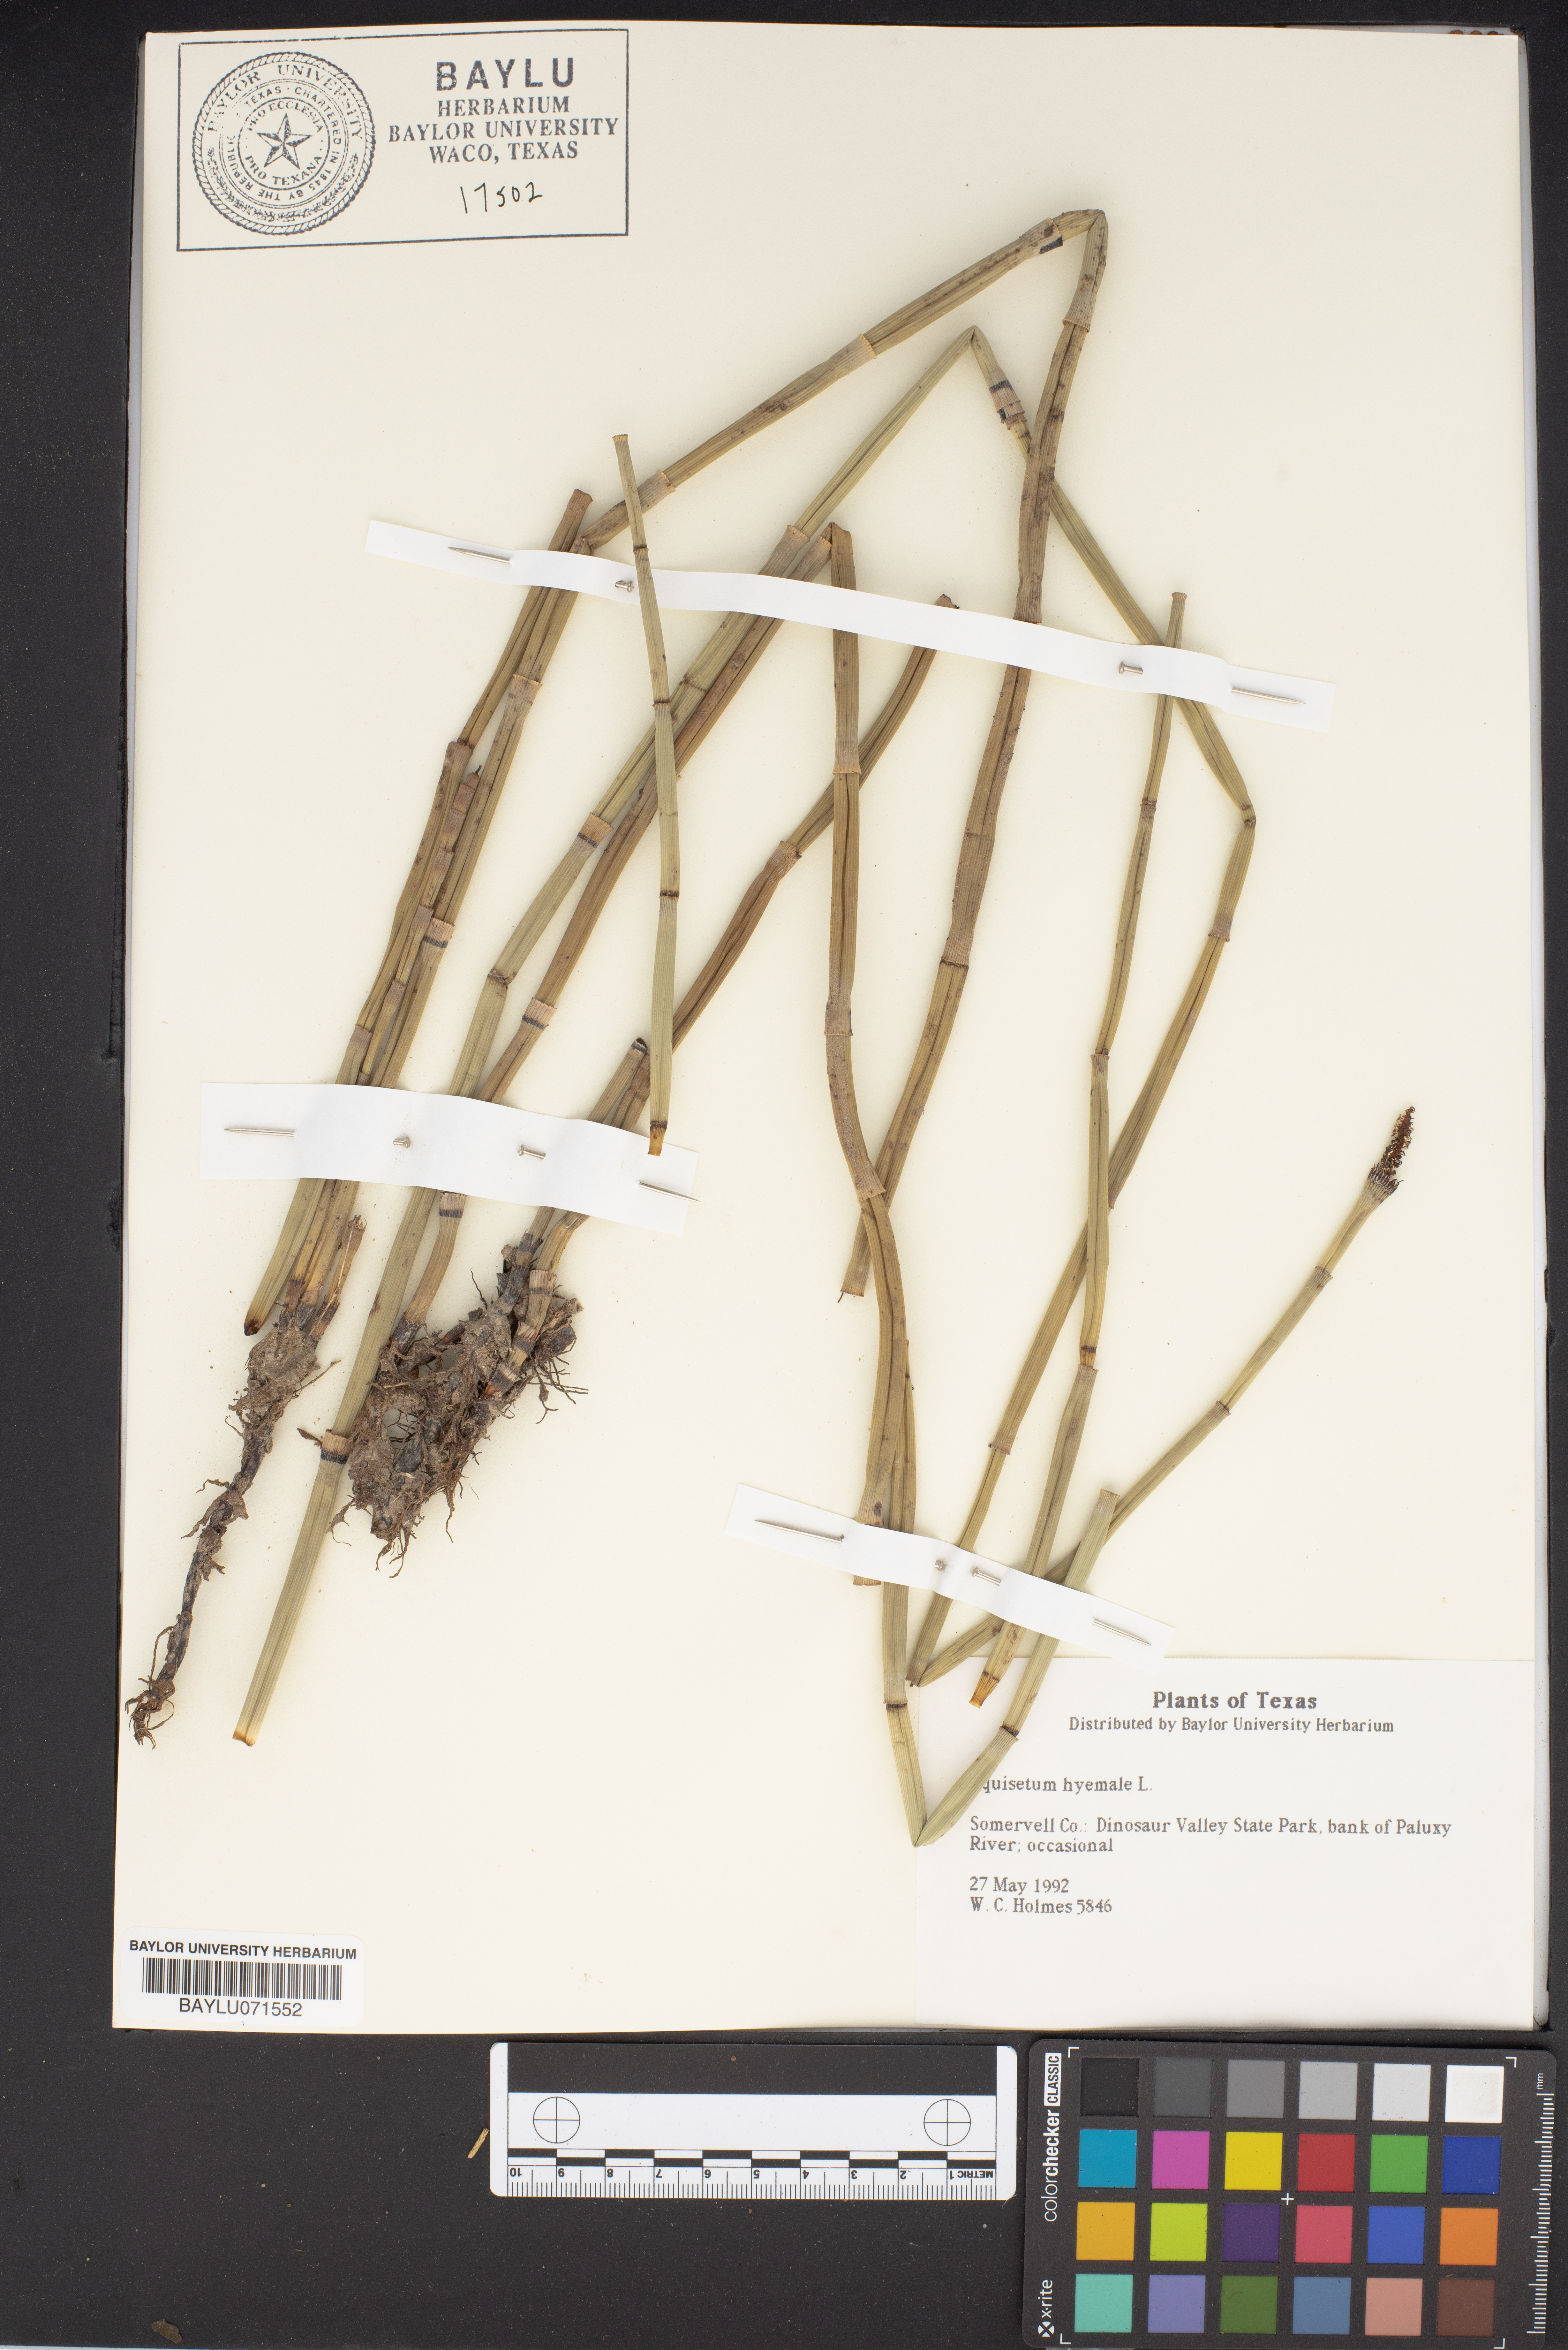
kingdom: Plantae
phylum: Tracheophyta
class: Polypodiopsida
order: Equisetales
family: Equisetaceae
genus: Equisetum
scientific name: Equisetum hyemale
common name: Rough horsetail
